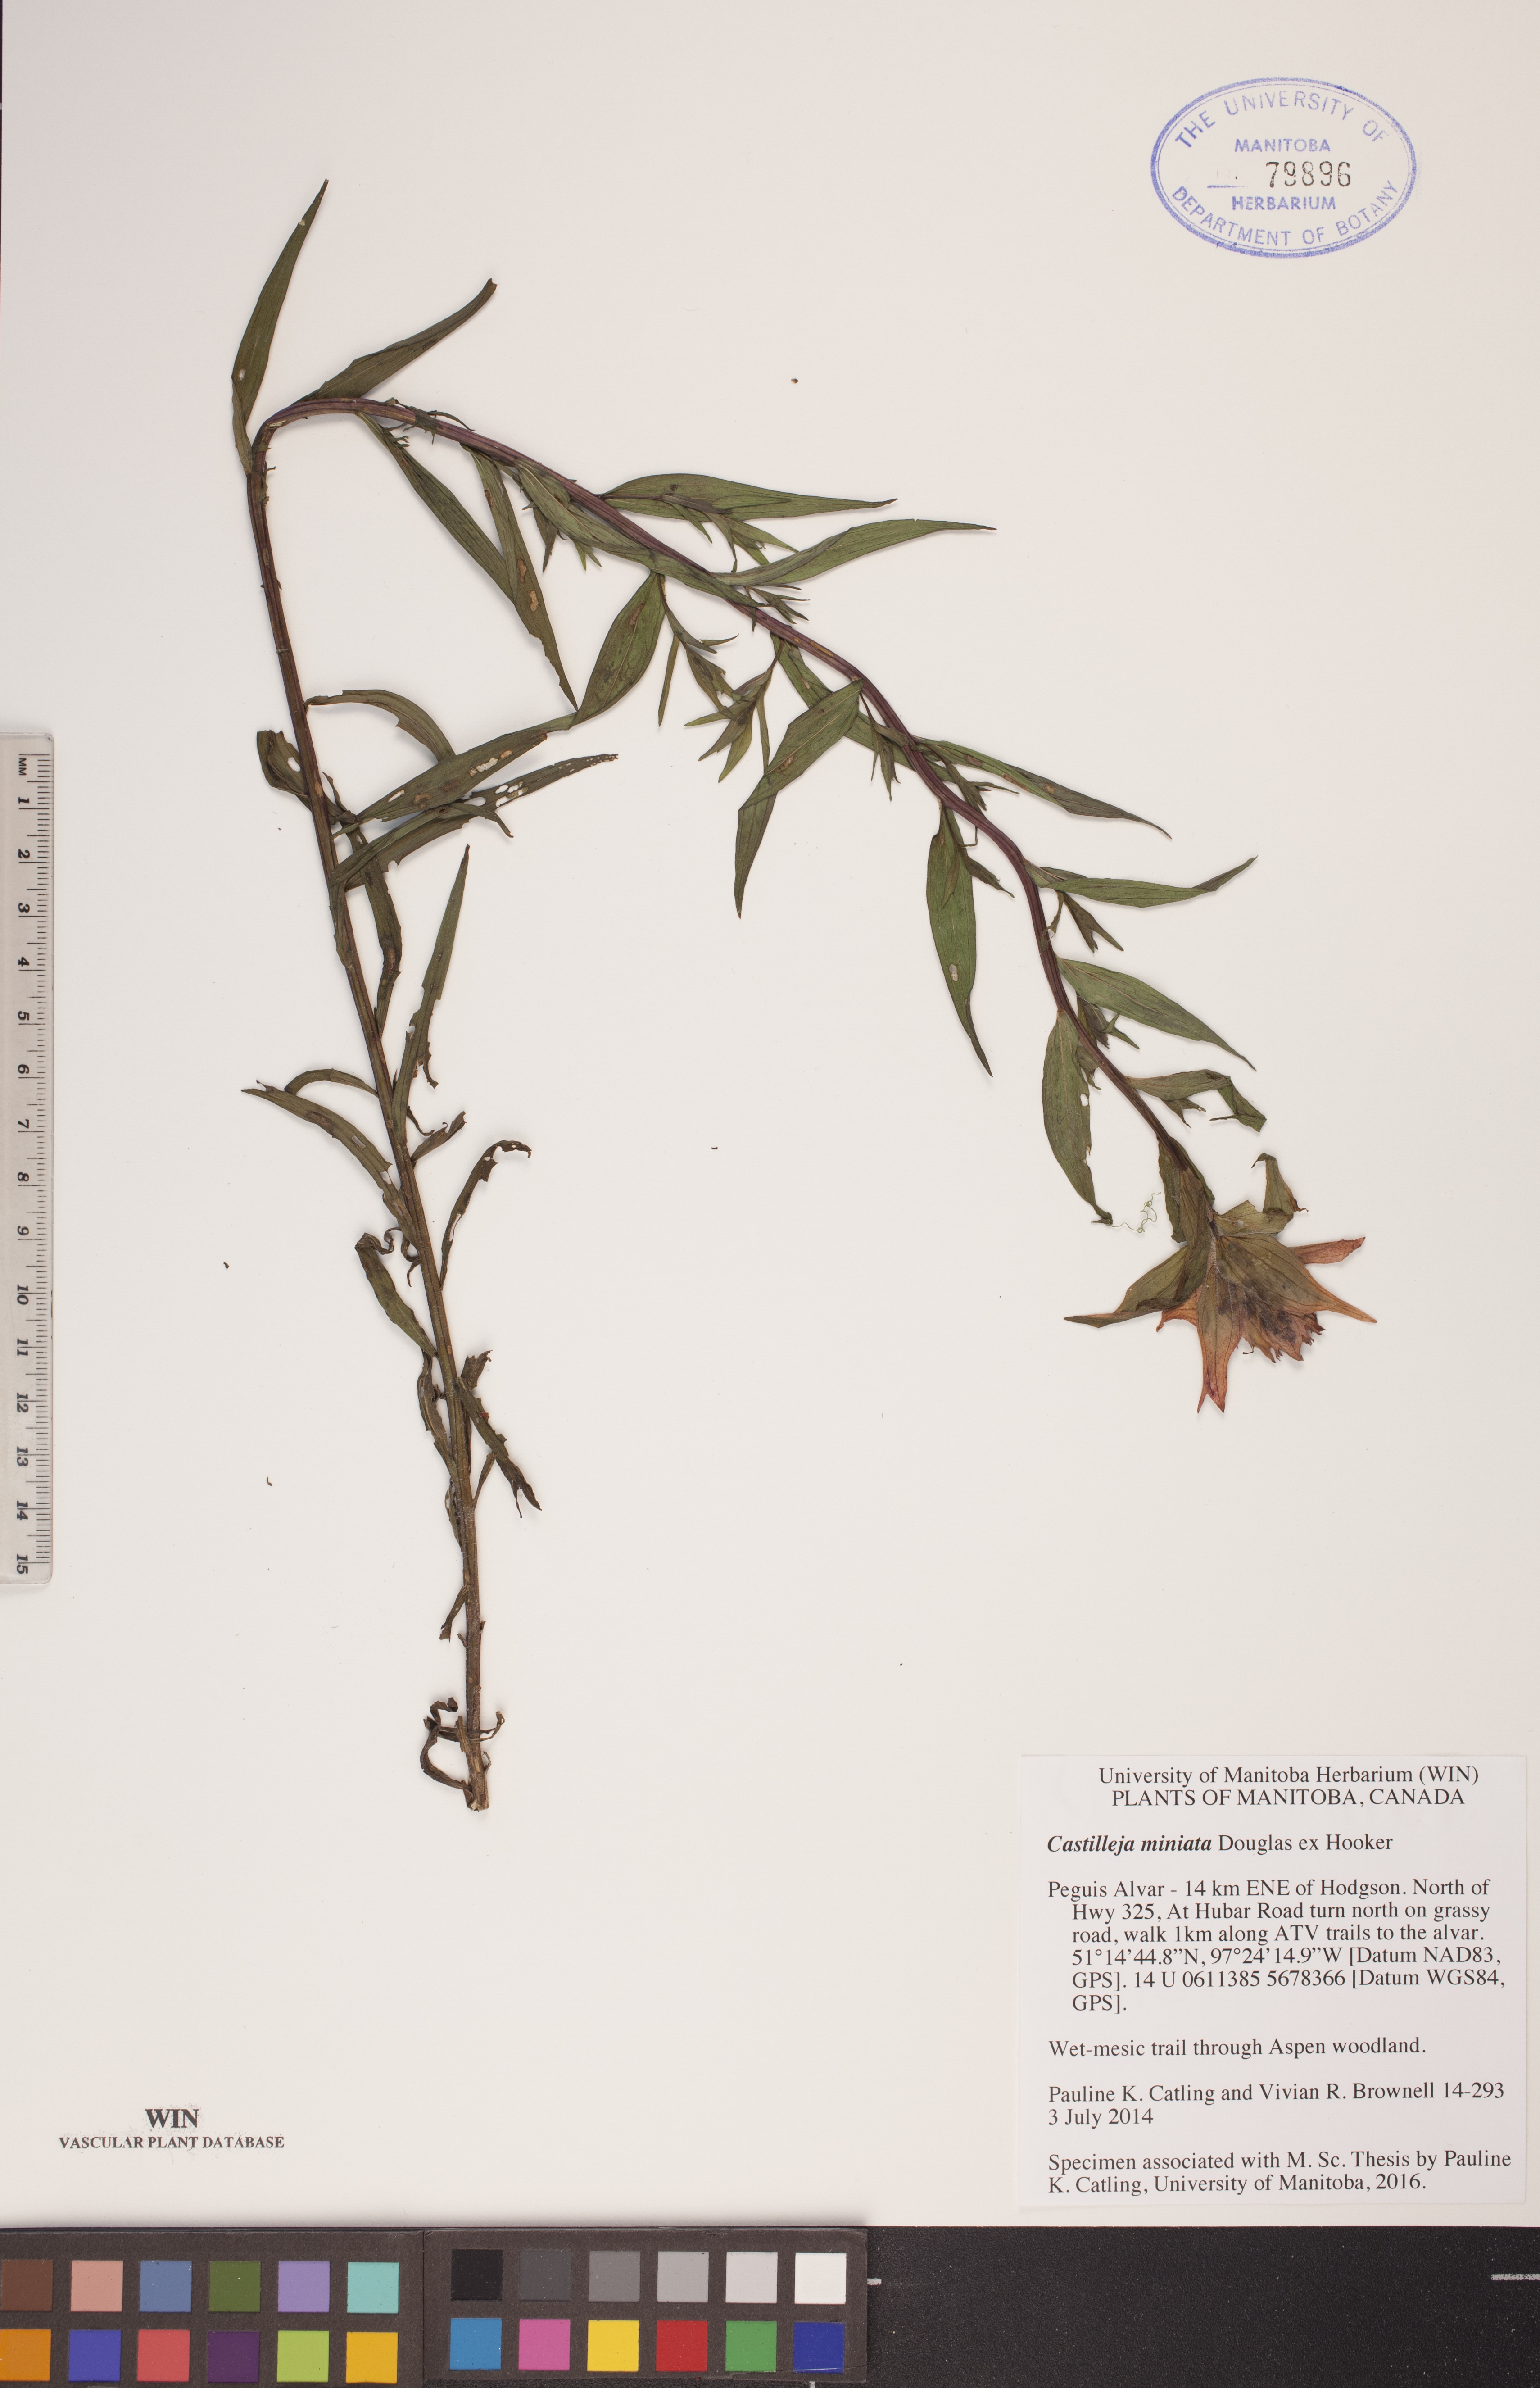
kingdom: Plantae
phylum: Tracheophyta
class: Magnoliopsida
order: Lamiales
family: Orobanchaceae
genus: Castilleja
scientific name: Castilleja miniata
